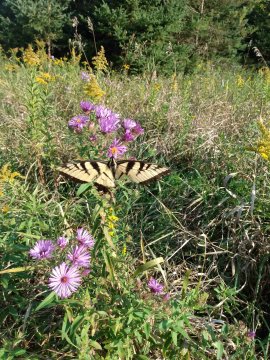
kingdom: Animalia
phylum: Arthropoda
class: Insecta
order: Lepidoptera
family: Papilionidae
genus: Pterourus
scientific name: Pterourus glaucus
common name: Eastern Tiger Swallowtail
